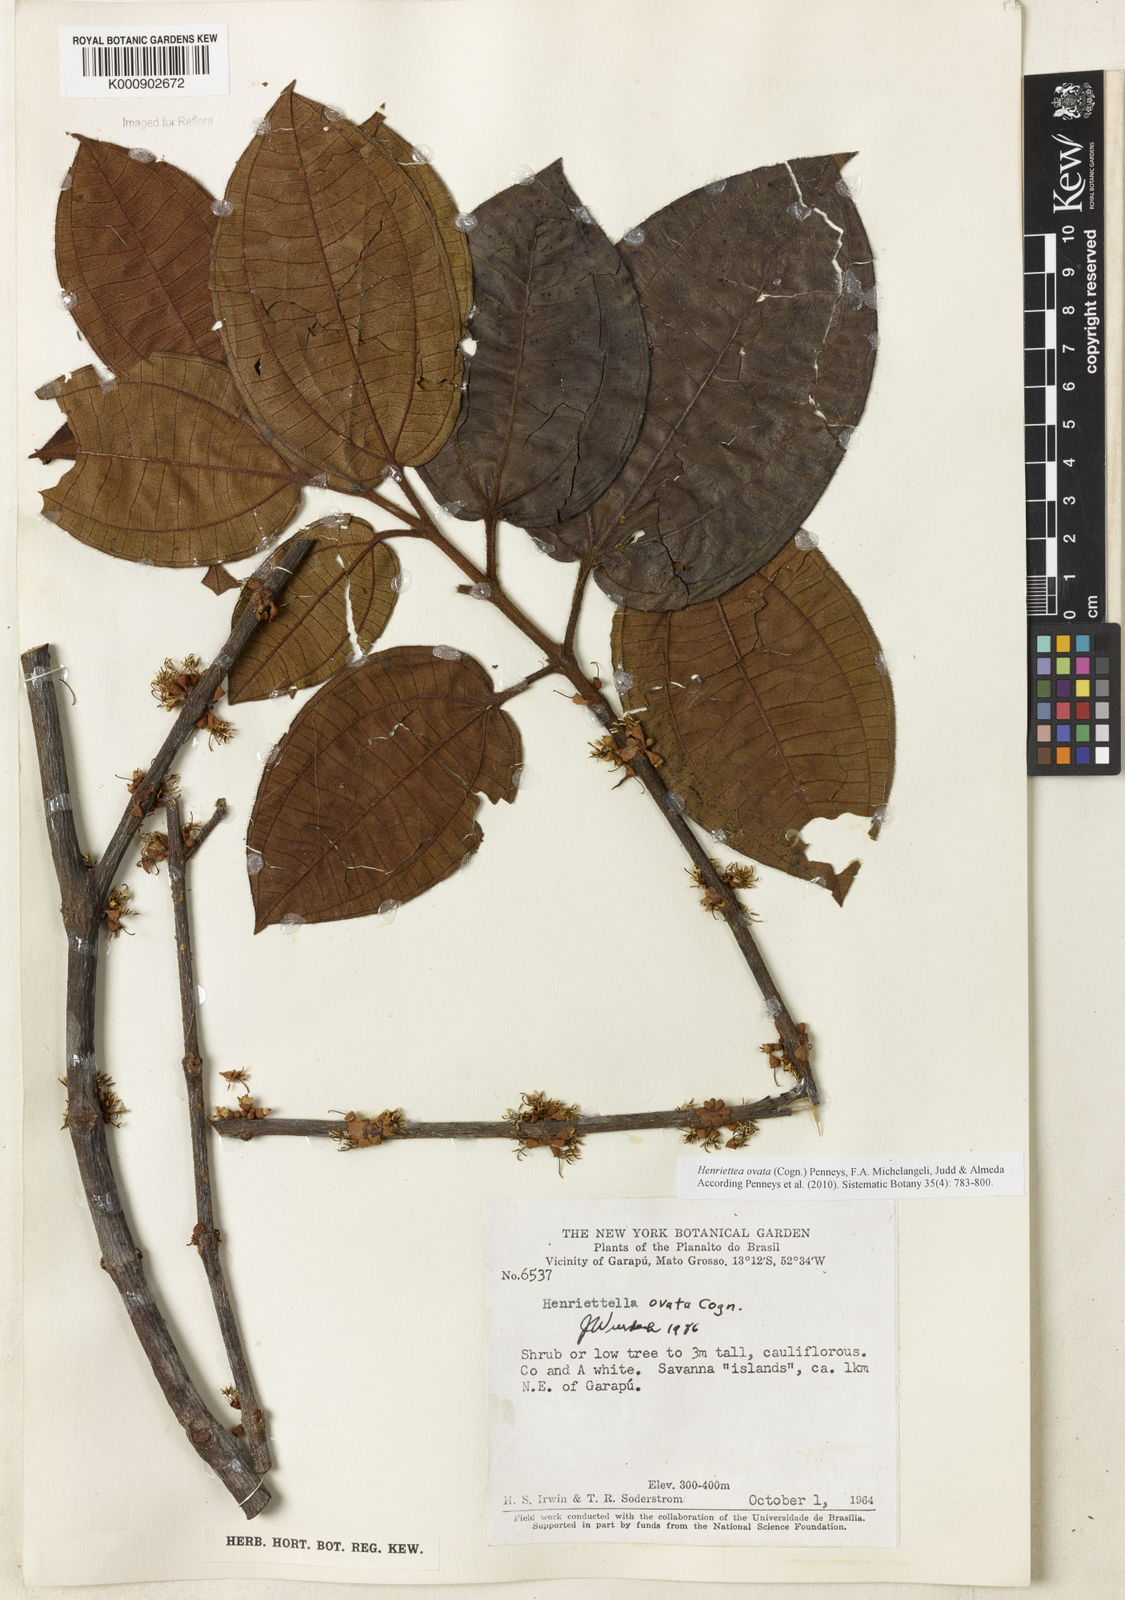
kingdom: Plantae
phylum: Tracheophyta
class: Magnoliopsida
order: Myrtales
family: Melastomataceae
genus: Henriettea
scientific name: Henriettea ovata
